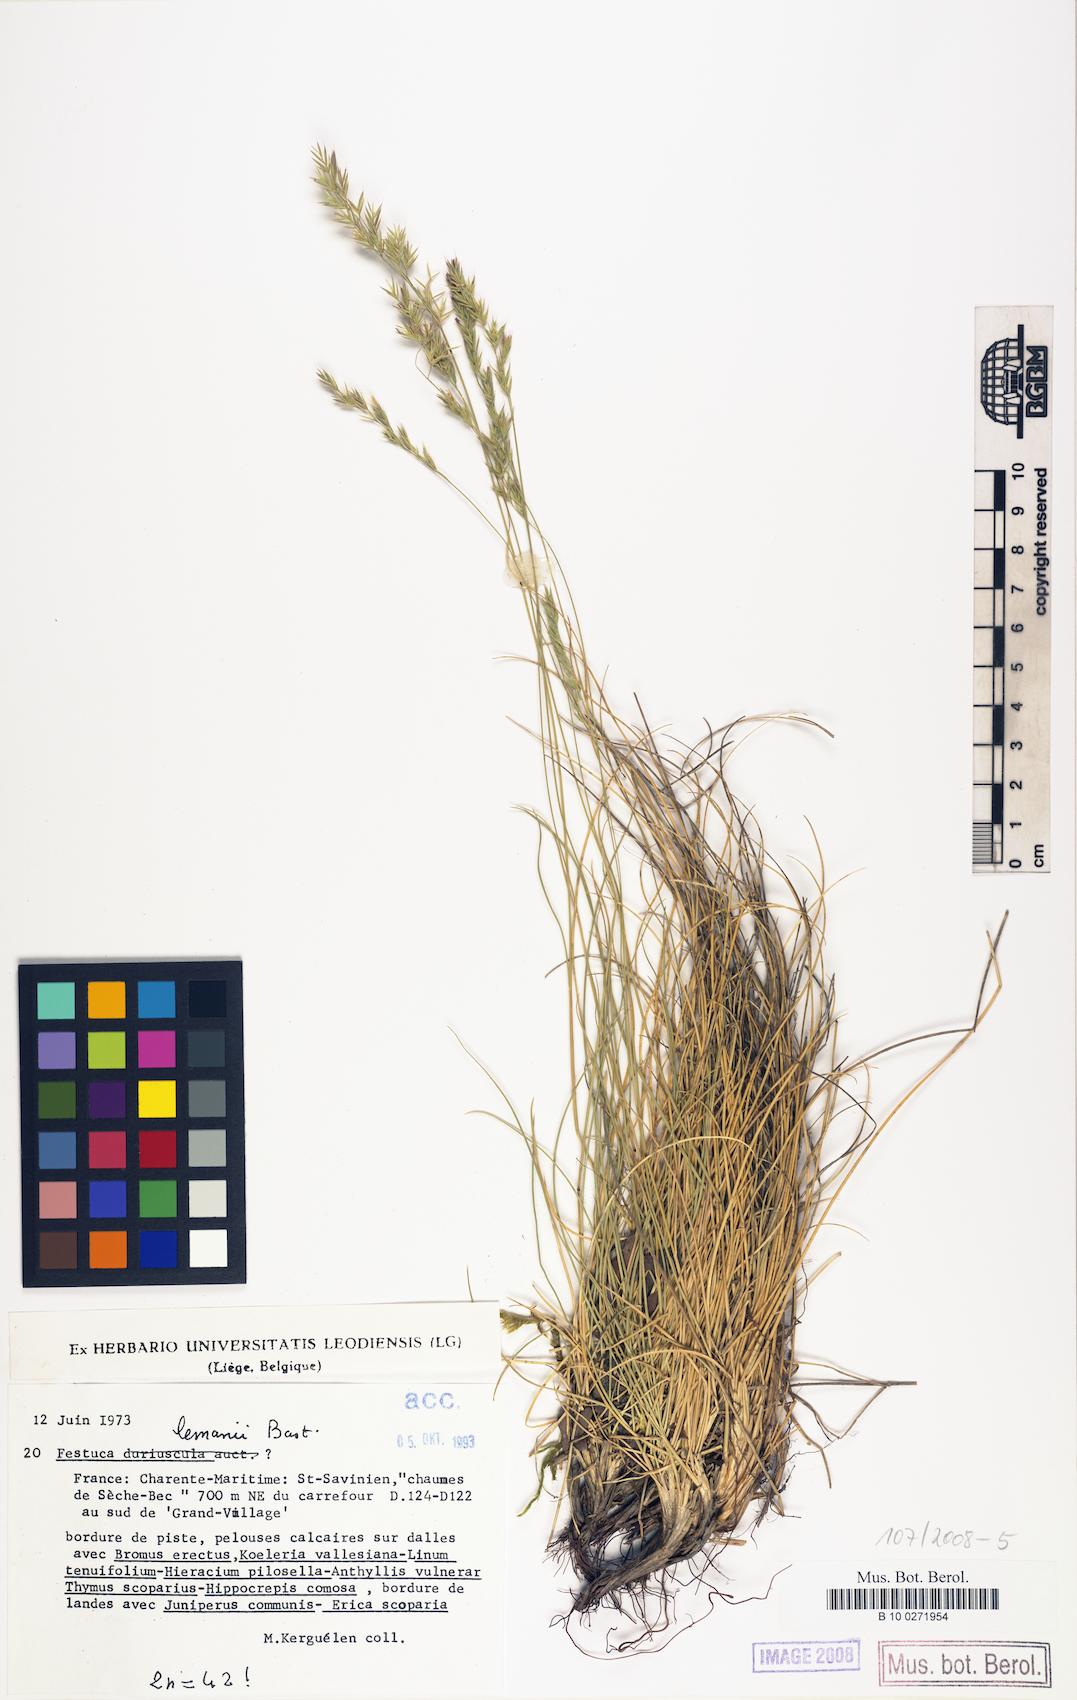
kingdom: Plantae
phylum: Tracheophyta
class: Liliopsida
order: Poales
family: Poaceae
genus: Festuca
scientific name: Festuca lemanii
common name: Confused fescue
